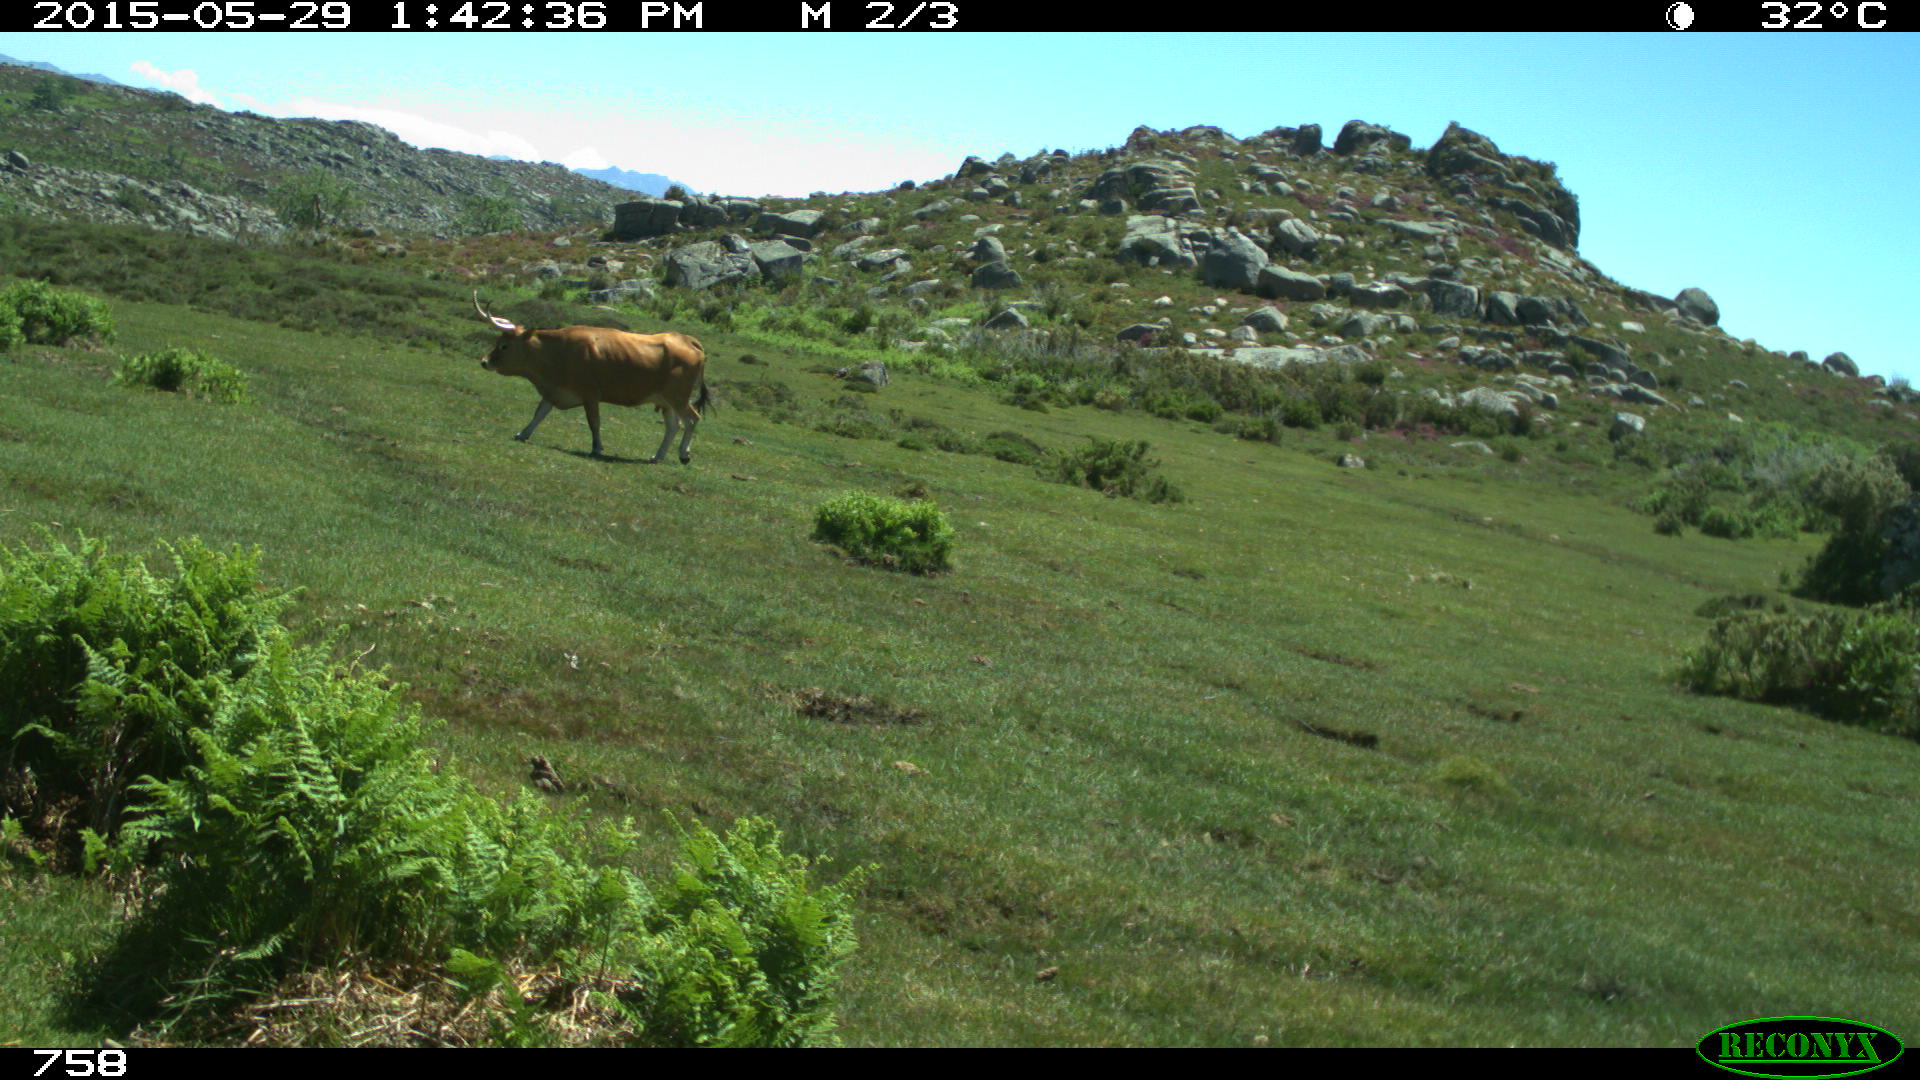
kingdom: Animalia
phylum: Chordata
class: Mammalia
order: Artiodactyla
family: Bovidae
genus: Bos
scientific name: Bos taurus
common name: Domesticated cattle
